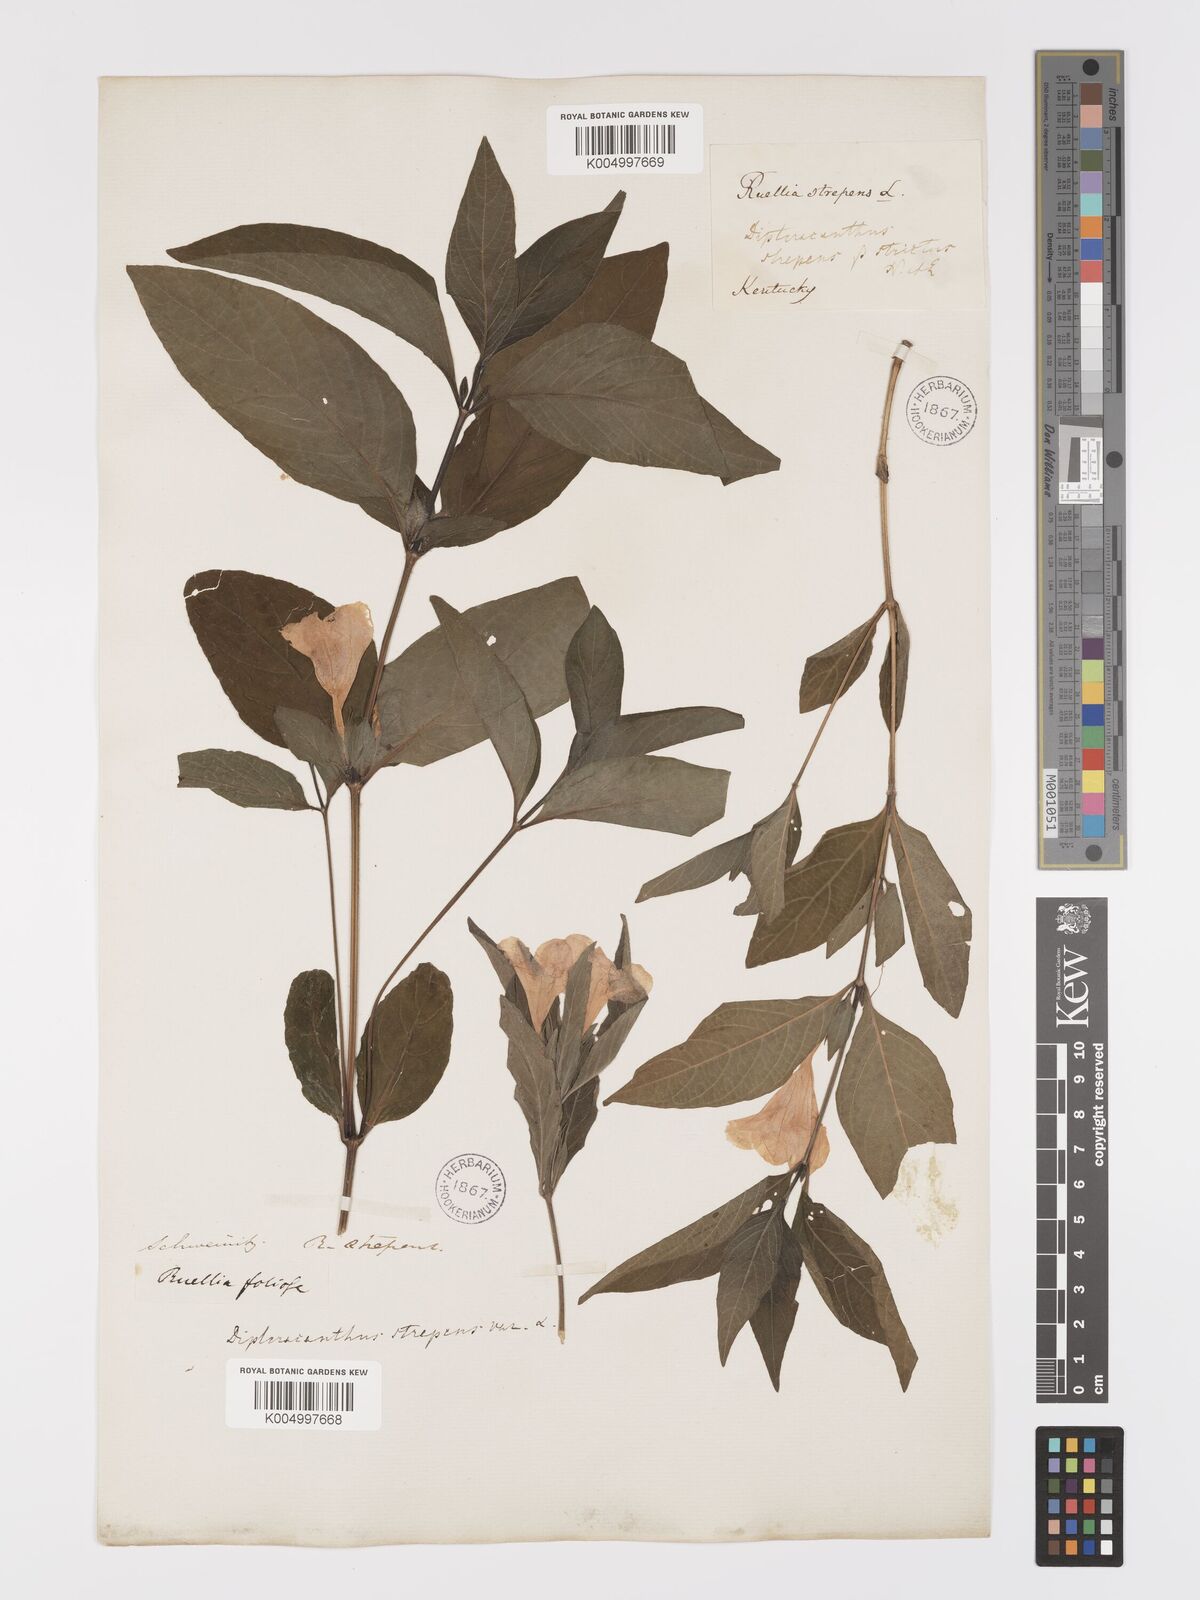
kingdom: Plantae
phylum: Tracheophyta
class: Magnoliopsida
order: Lamiales
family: Acanthaceae
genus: Ruellia
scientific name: Ruellia strepens
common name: Limestone wild petunia
